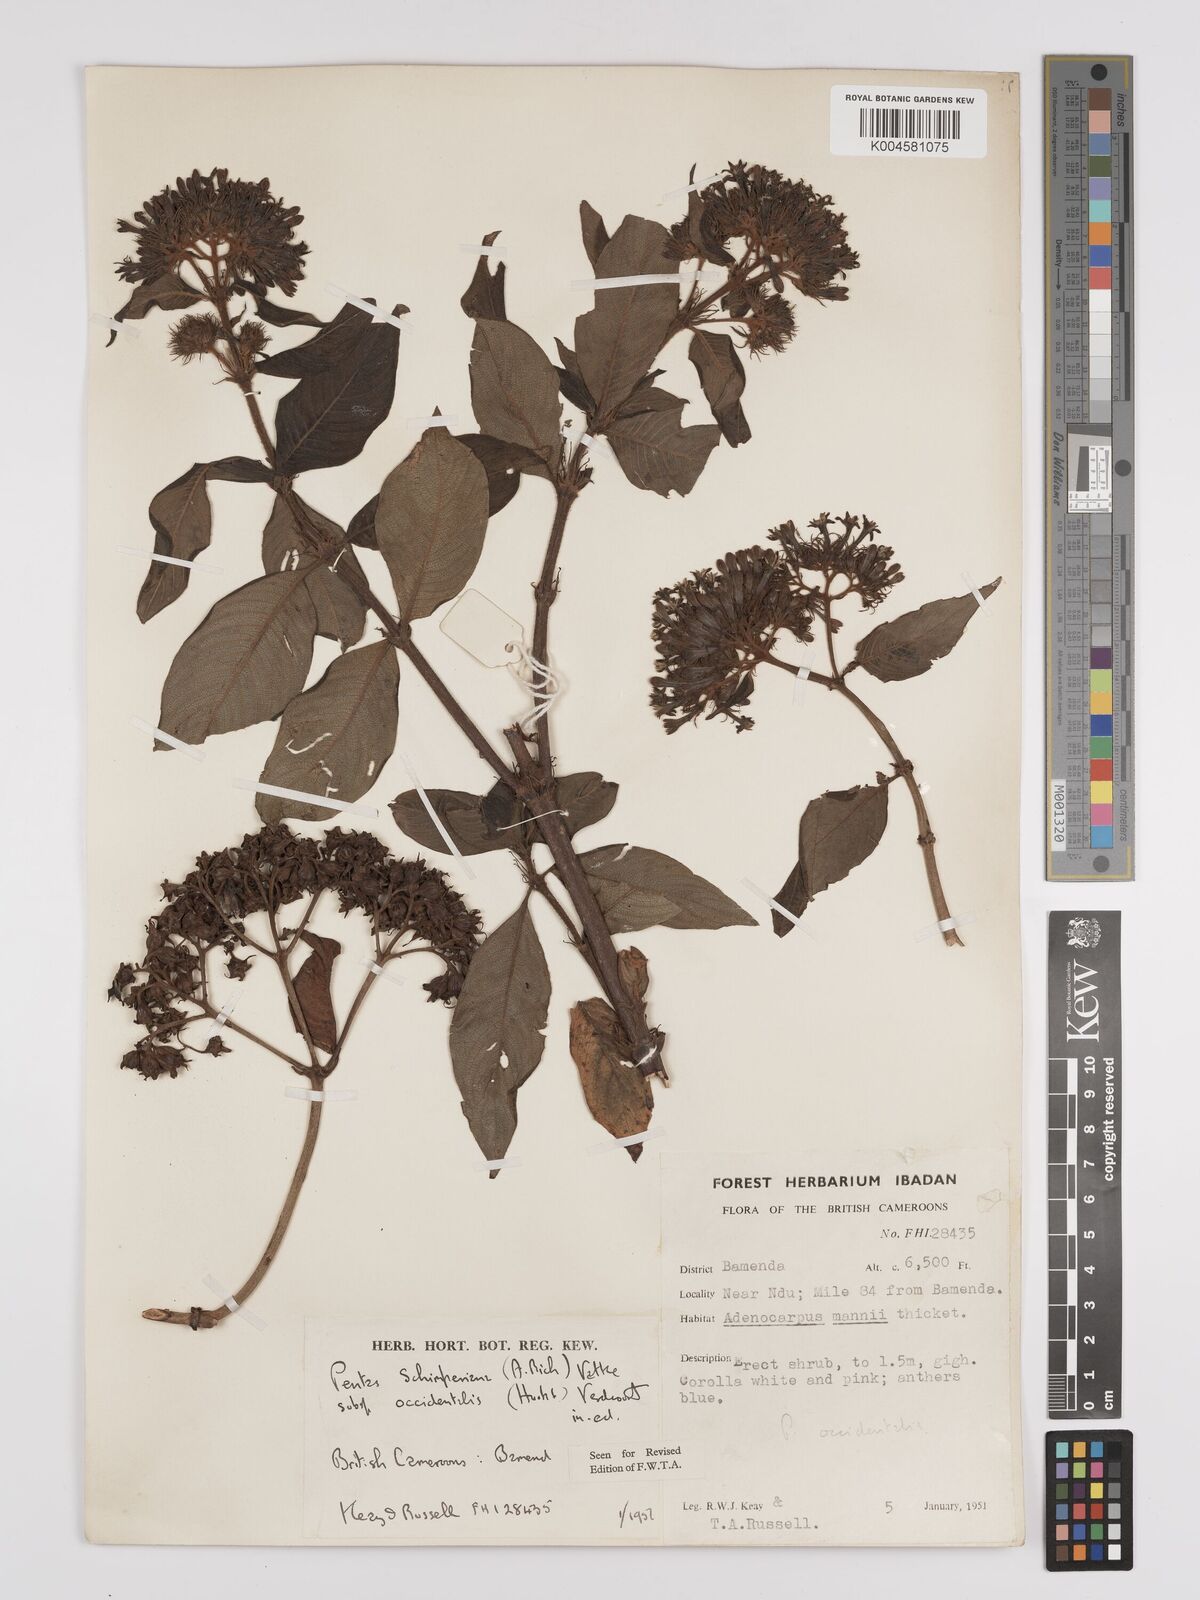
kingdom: Plantae
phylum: Tracheophyta
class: Magnoliopsida
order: Gentianales
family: Rubiaceae
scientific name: Rubiaceae
